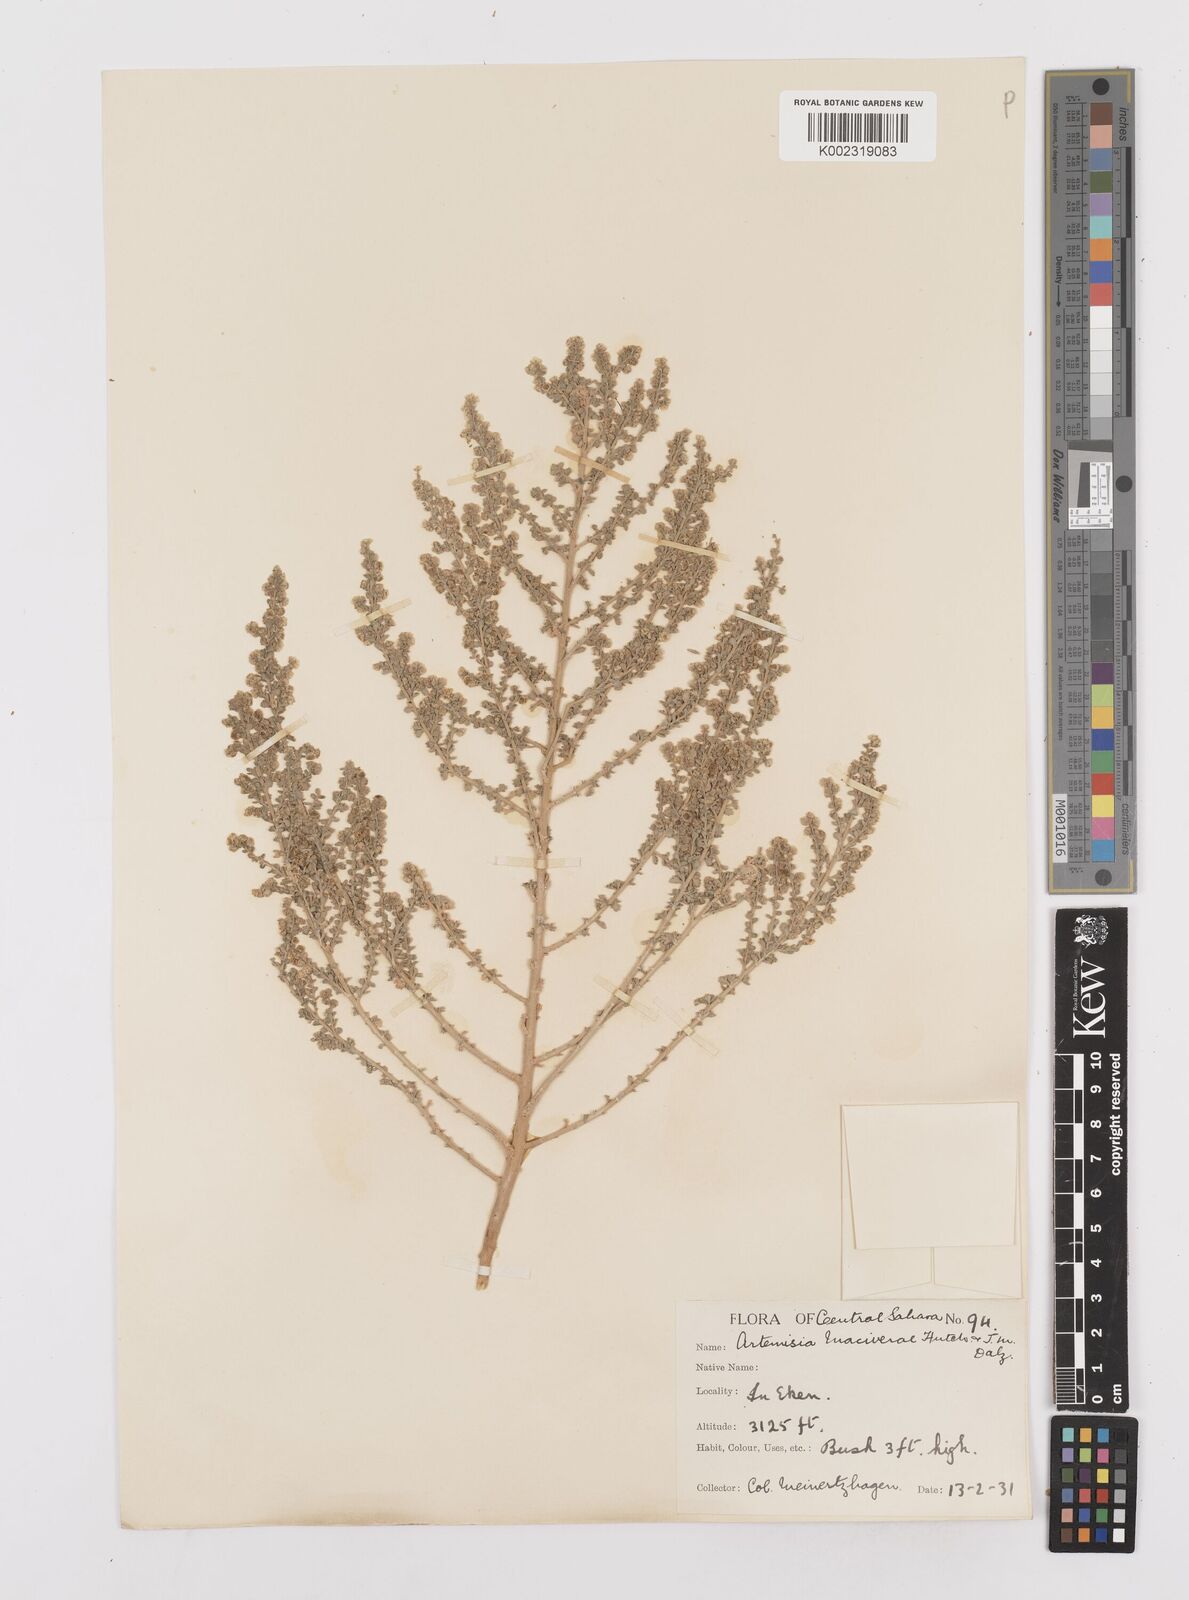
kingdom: Plantae
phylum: Tracheophyta
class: Magnoliopsida
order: Asterales
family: Asteraceae
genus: Artemisia
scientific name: Artemisia herba-alba
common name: White wormwood
